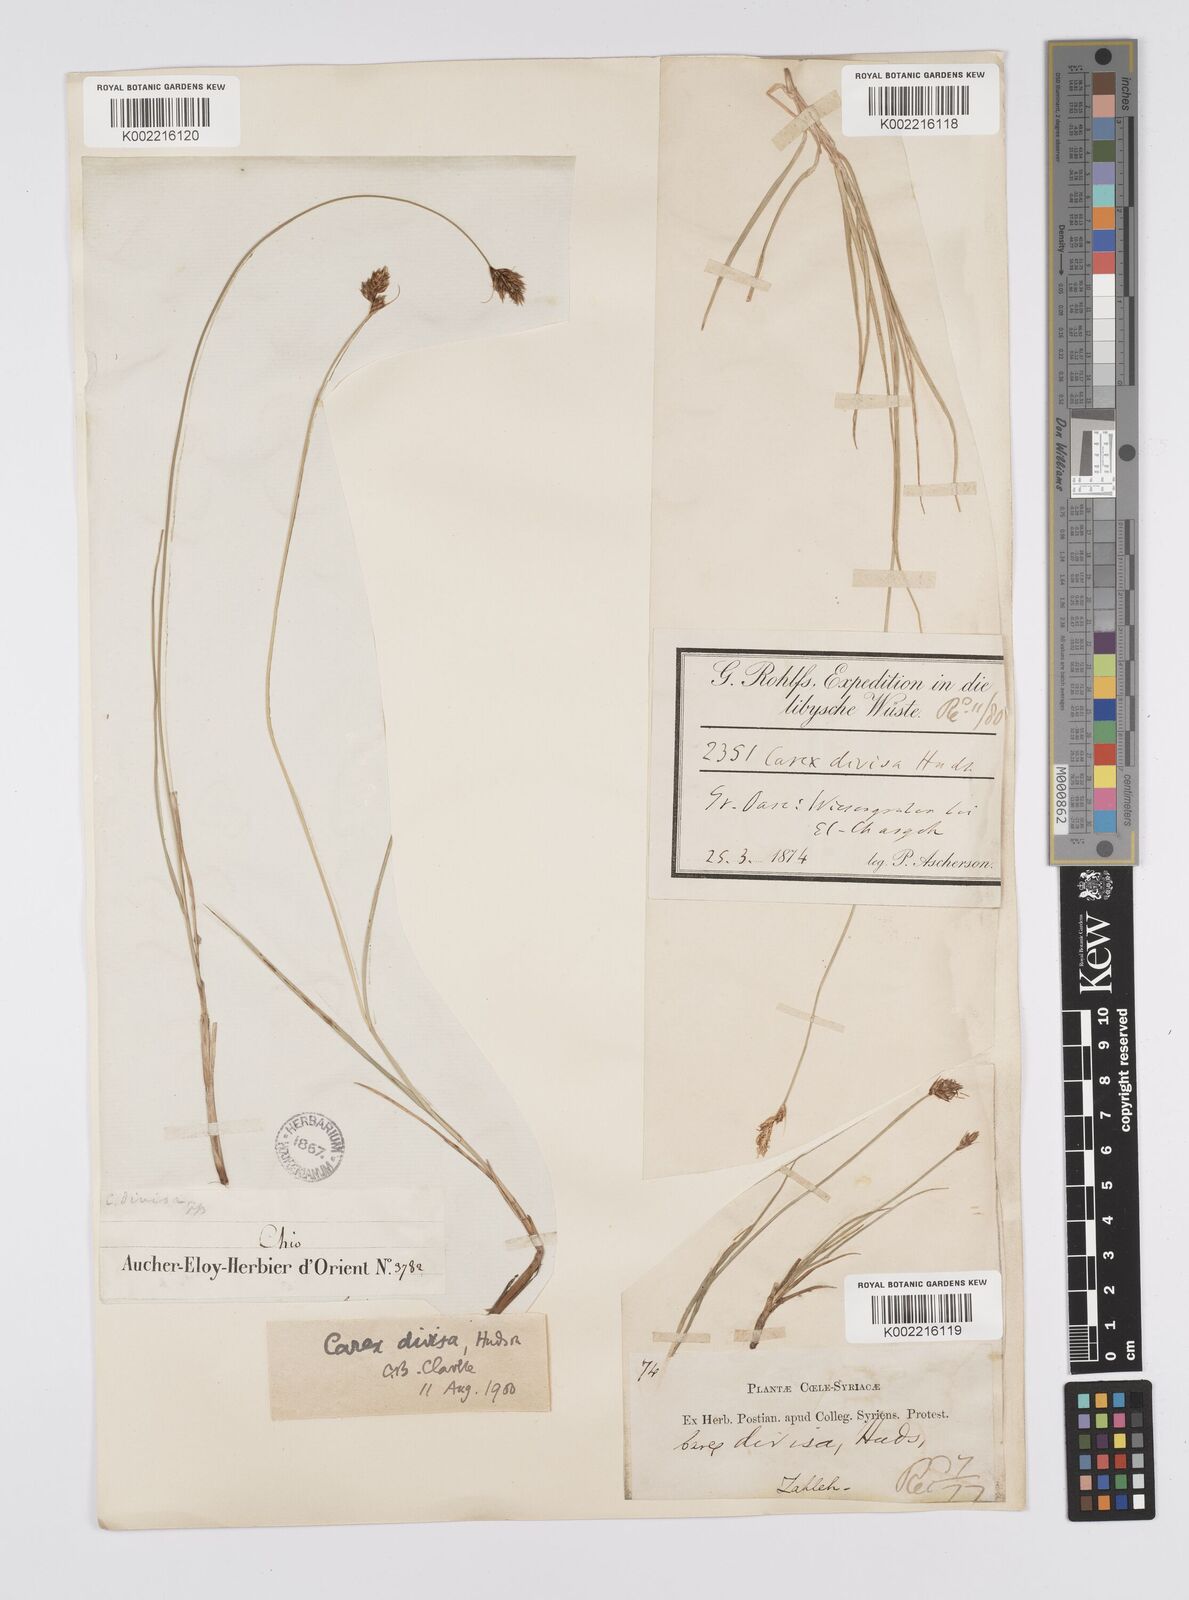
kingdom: Plantae
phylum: Tracheophyta
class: Liliopsida
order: Poales
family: Cyperaceae
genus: Carex
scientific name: Carex divisa
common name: Divided sedge
